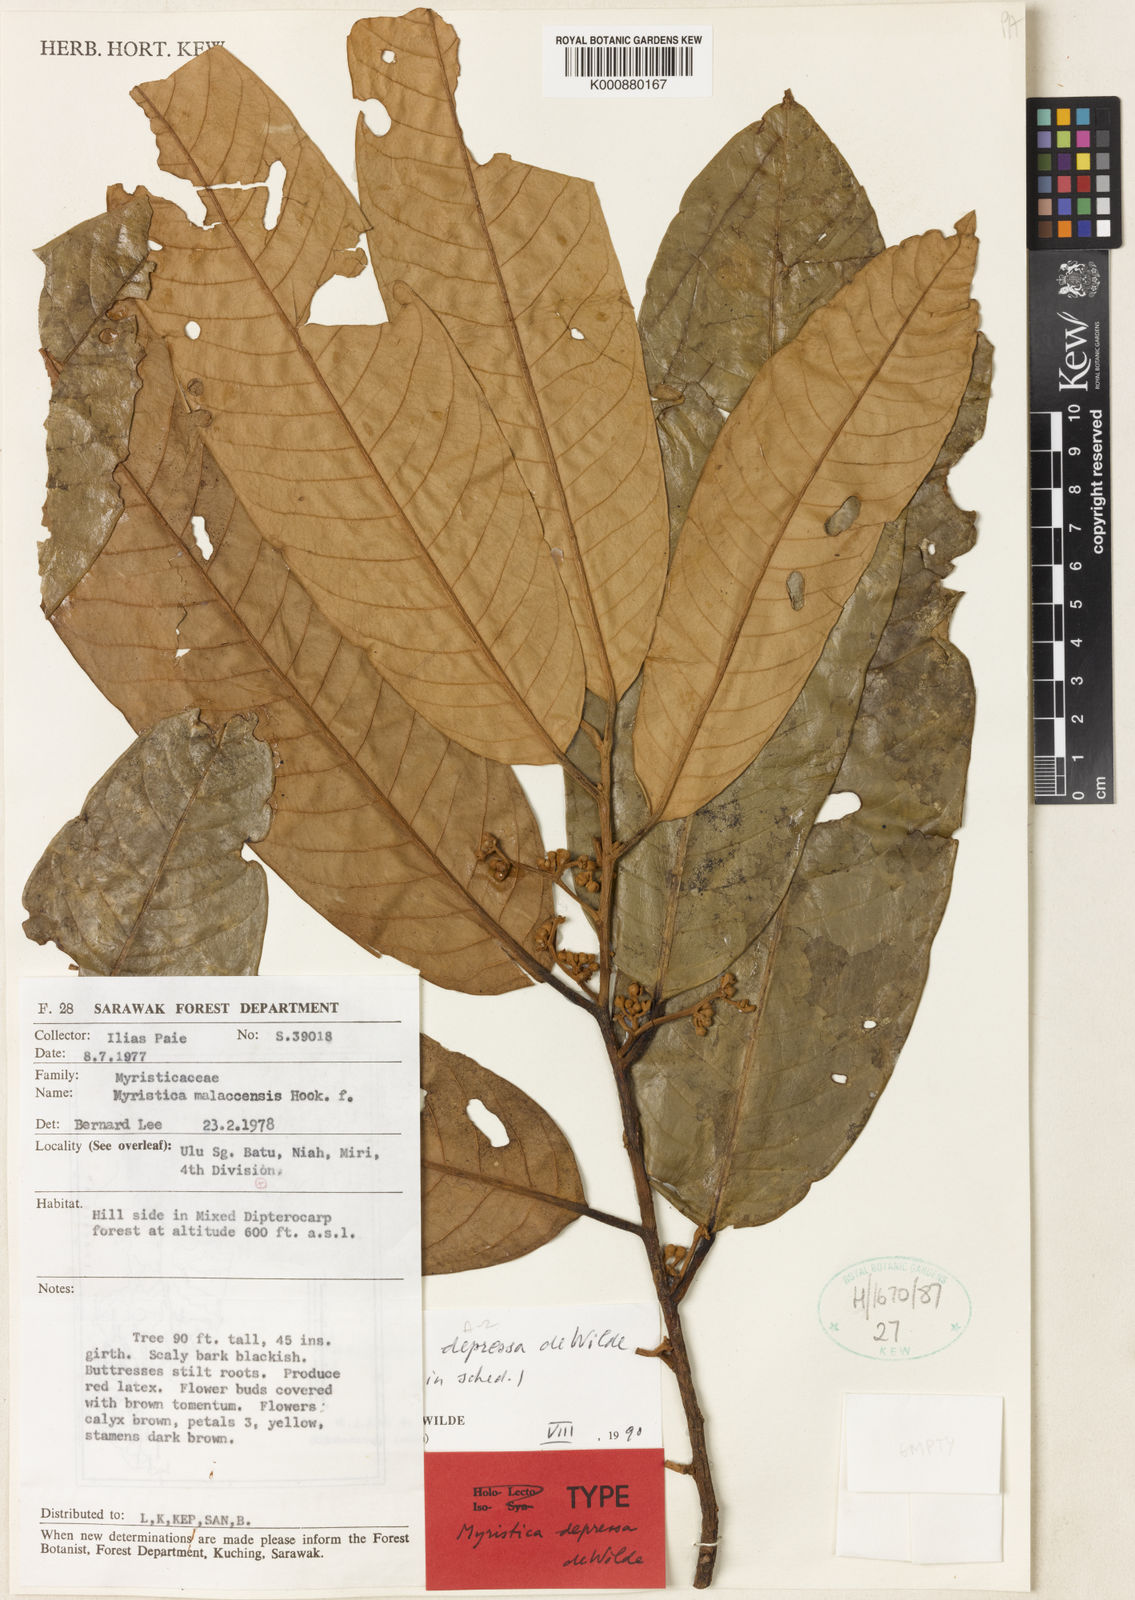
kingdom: Plantae
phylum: Tracheophyta
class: Magnoliopsida
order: Magnoliales
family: Myristicaceae
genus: Myristica
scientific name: Myristica depressa
